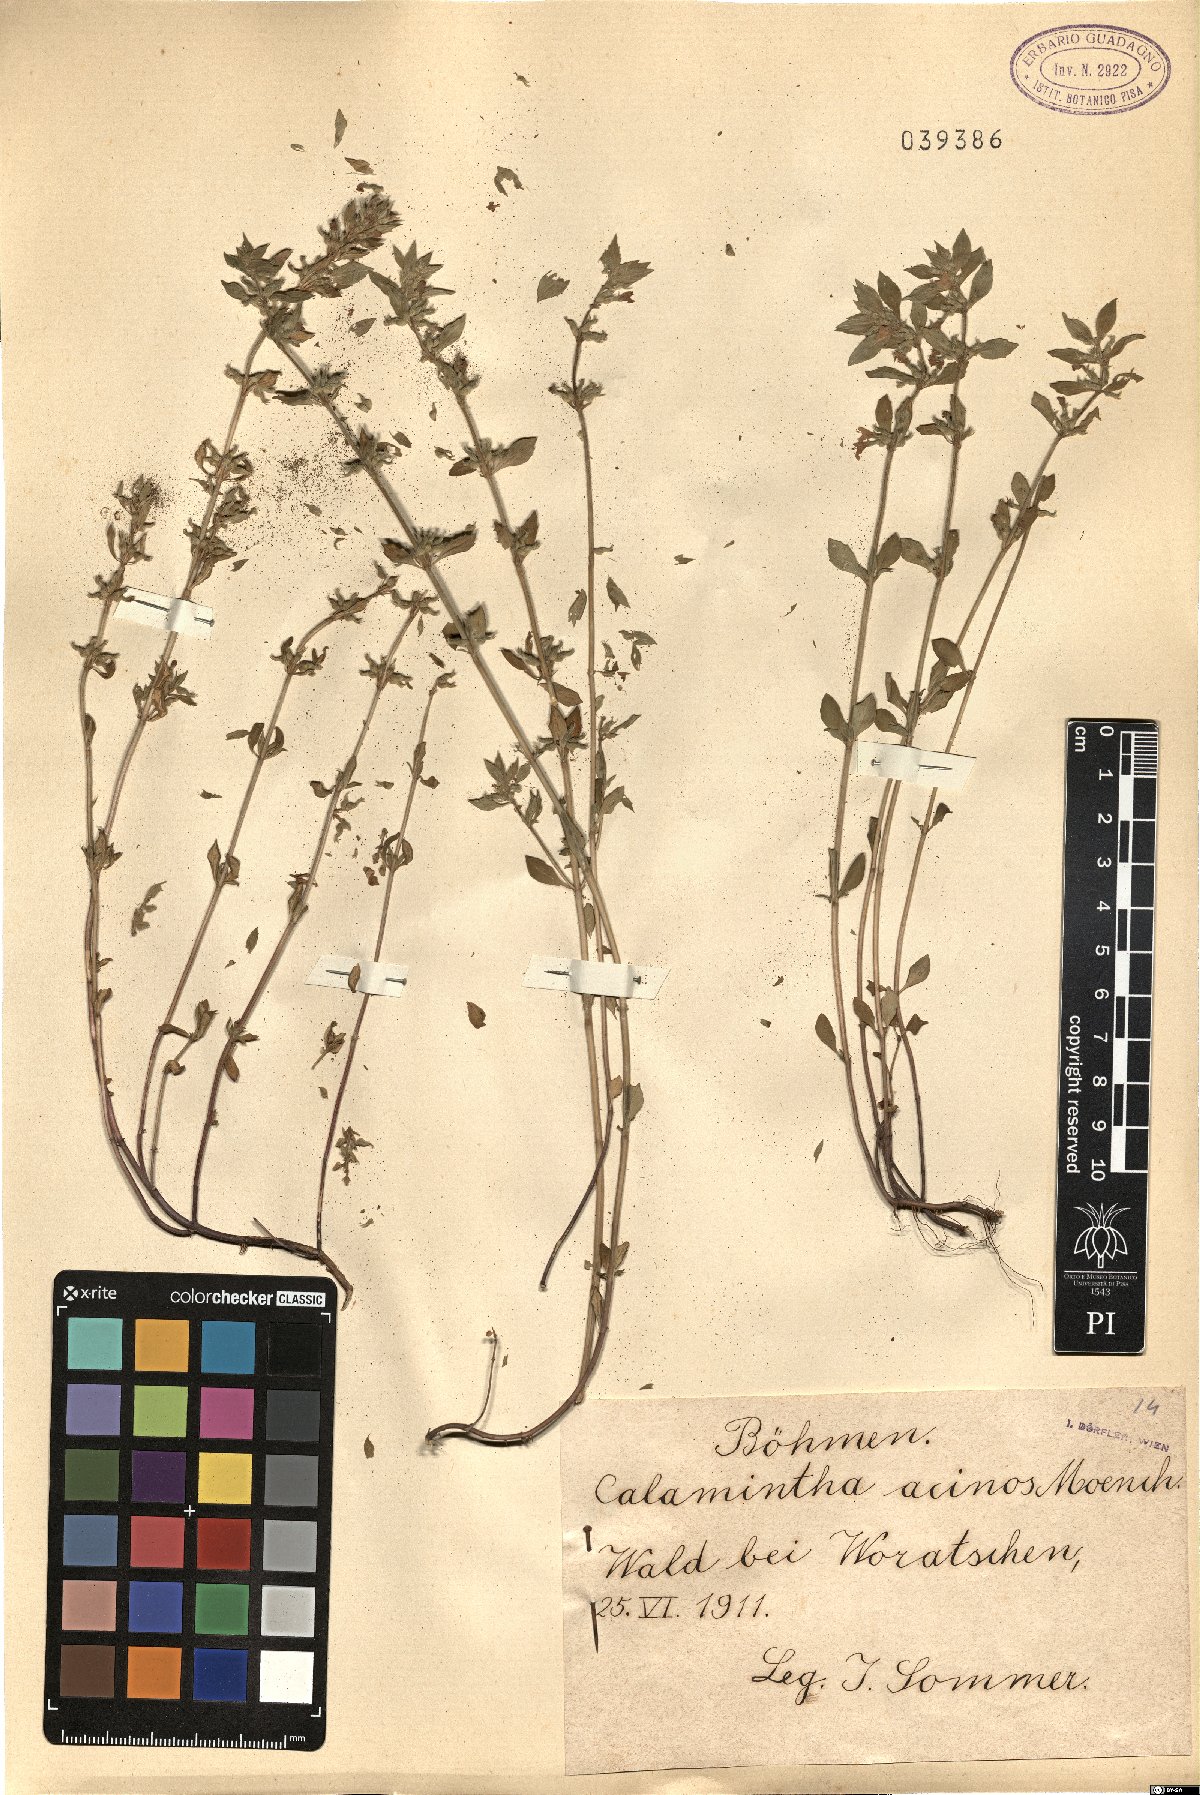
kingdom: Plantae
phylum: Tracheophyta
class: Magnoliopsida
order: Lamiales
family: Lamiaceae
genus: Clinopodium
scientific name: Clinopodium acinos
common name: Basil thyme
